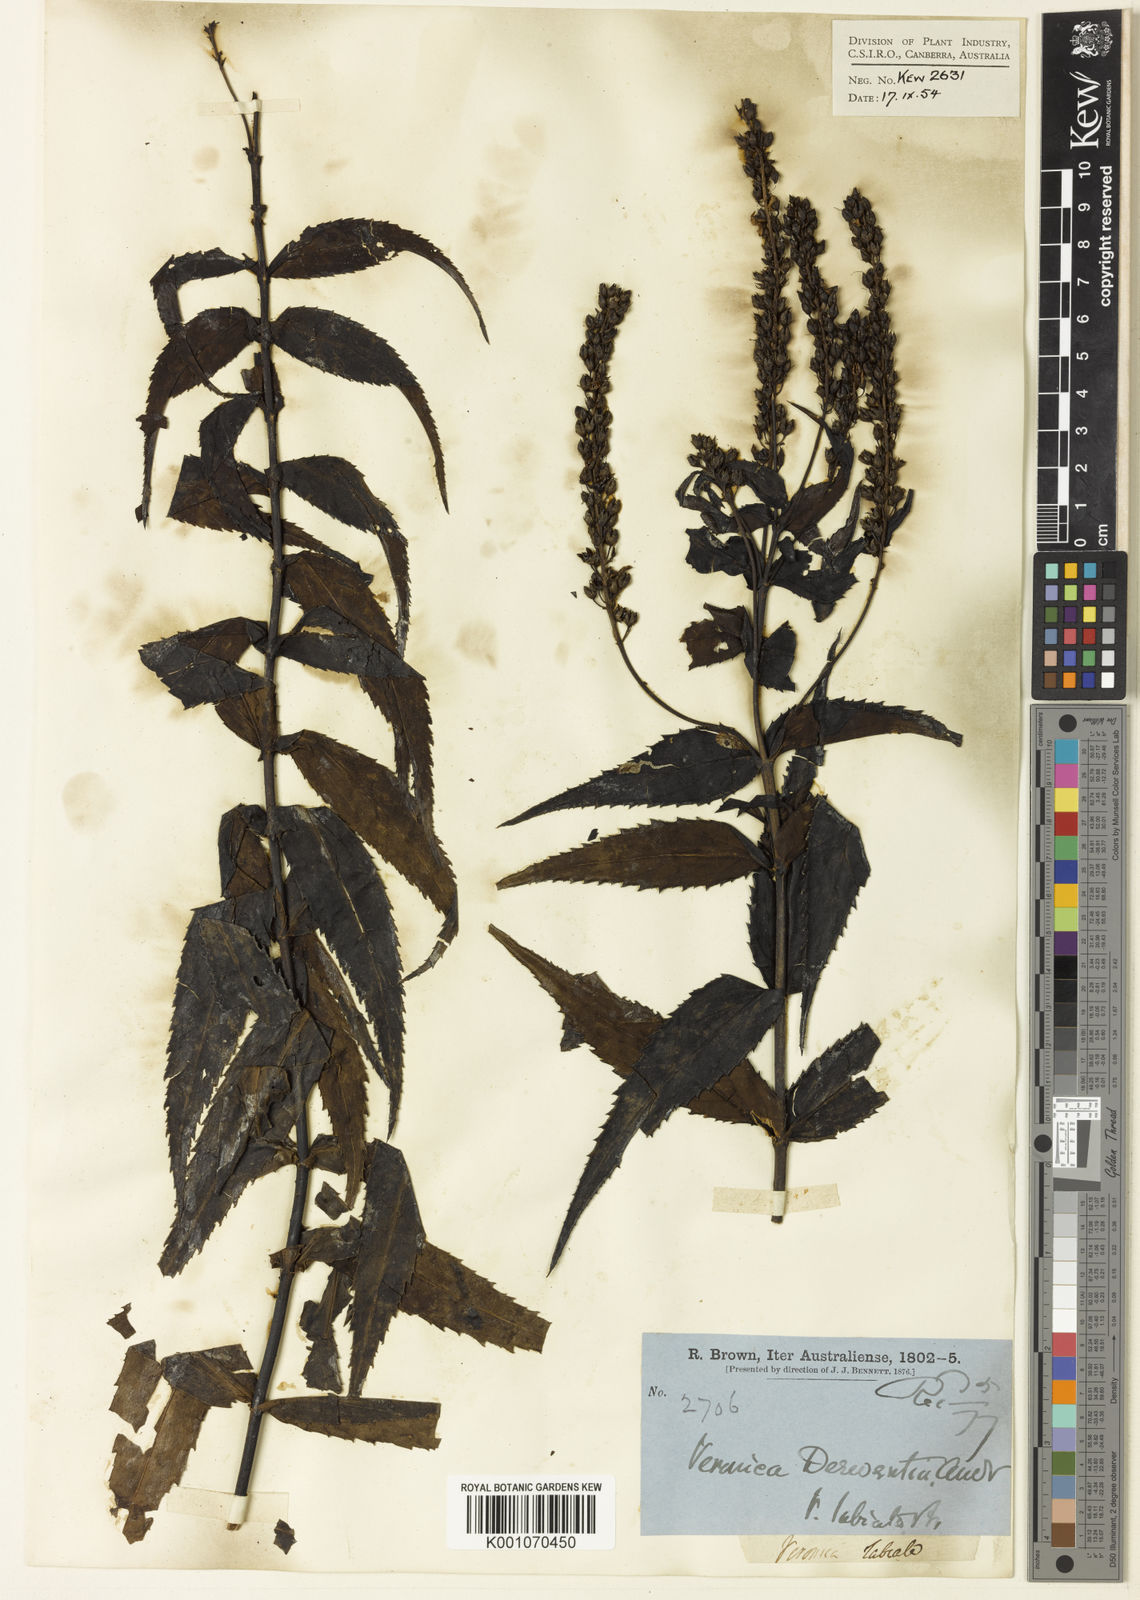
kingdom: Plantae
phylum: Tracheophyta
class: Magnoliopsida
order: Lamiales
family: Plantaginaceae
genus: Veronica
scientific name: Veronica
